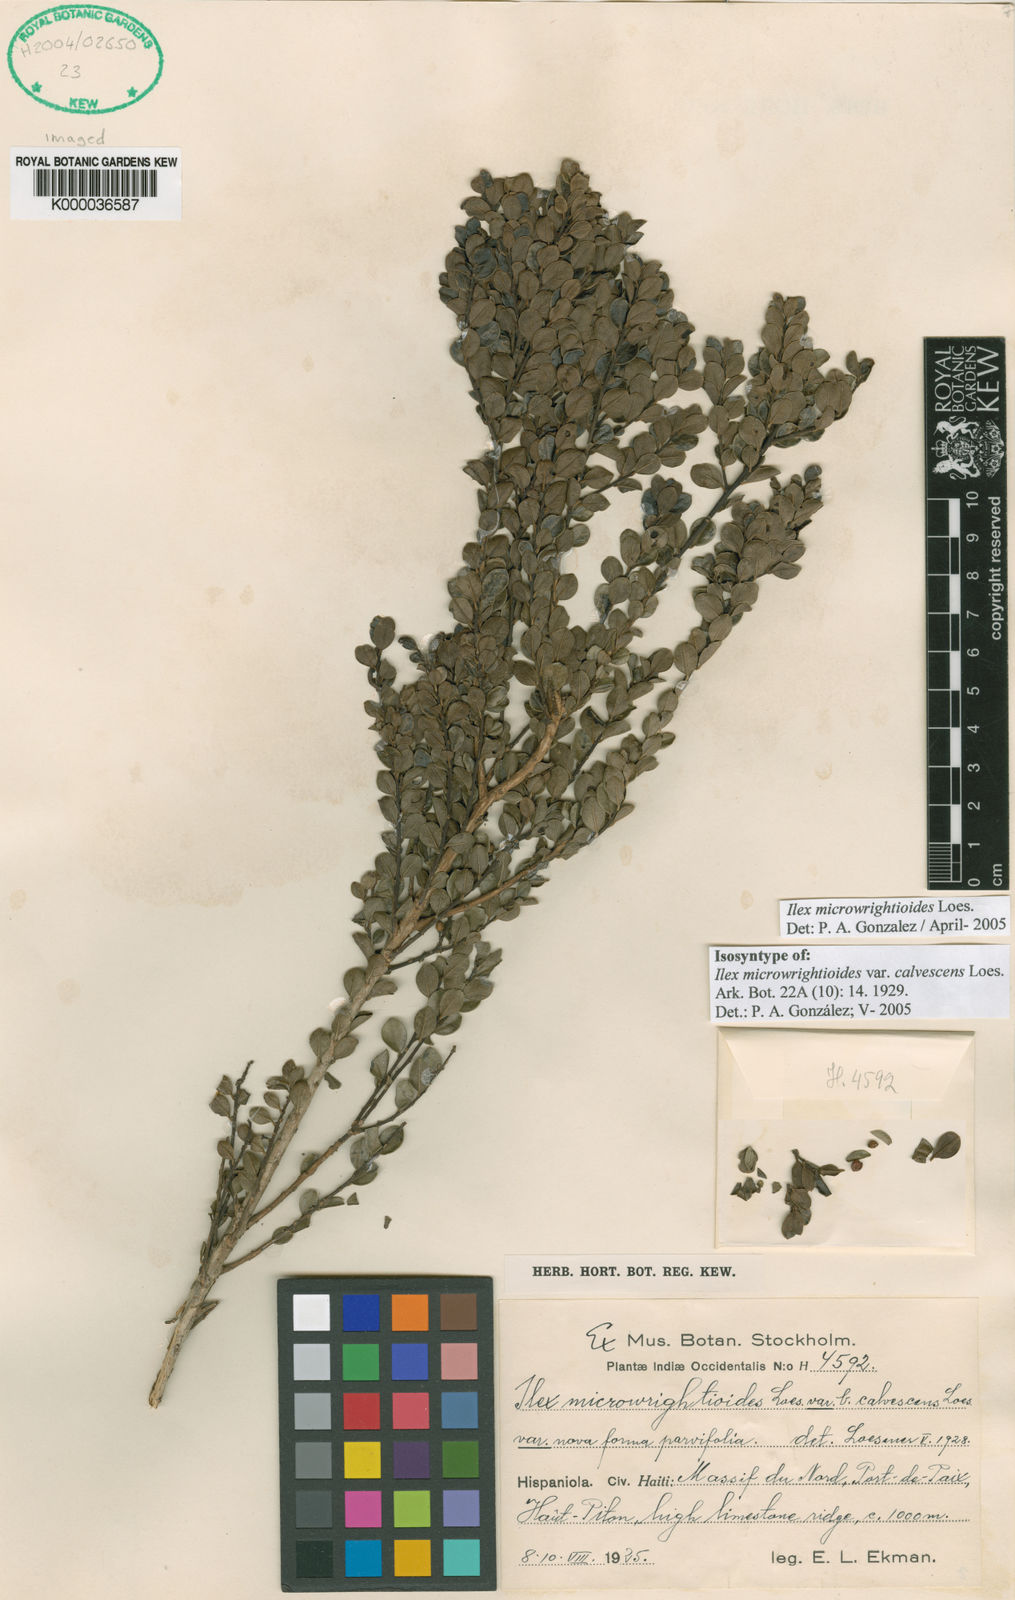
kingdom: Plantae
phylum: Tracheophyta
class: Magnoliopsida
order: Aquifoliales
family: Aquifoliaceae
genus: Ilex
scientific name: Ilex microwrightioides
